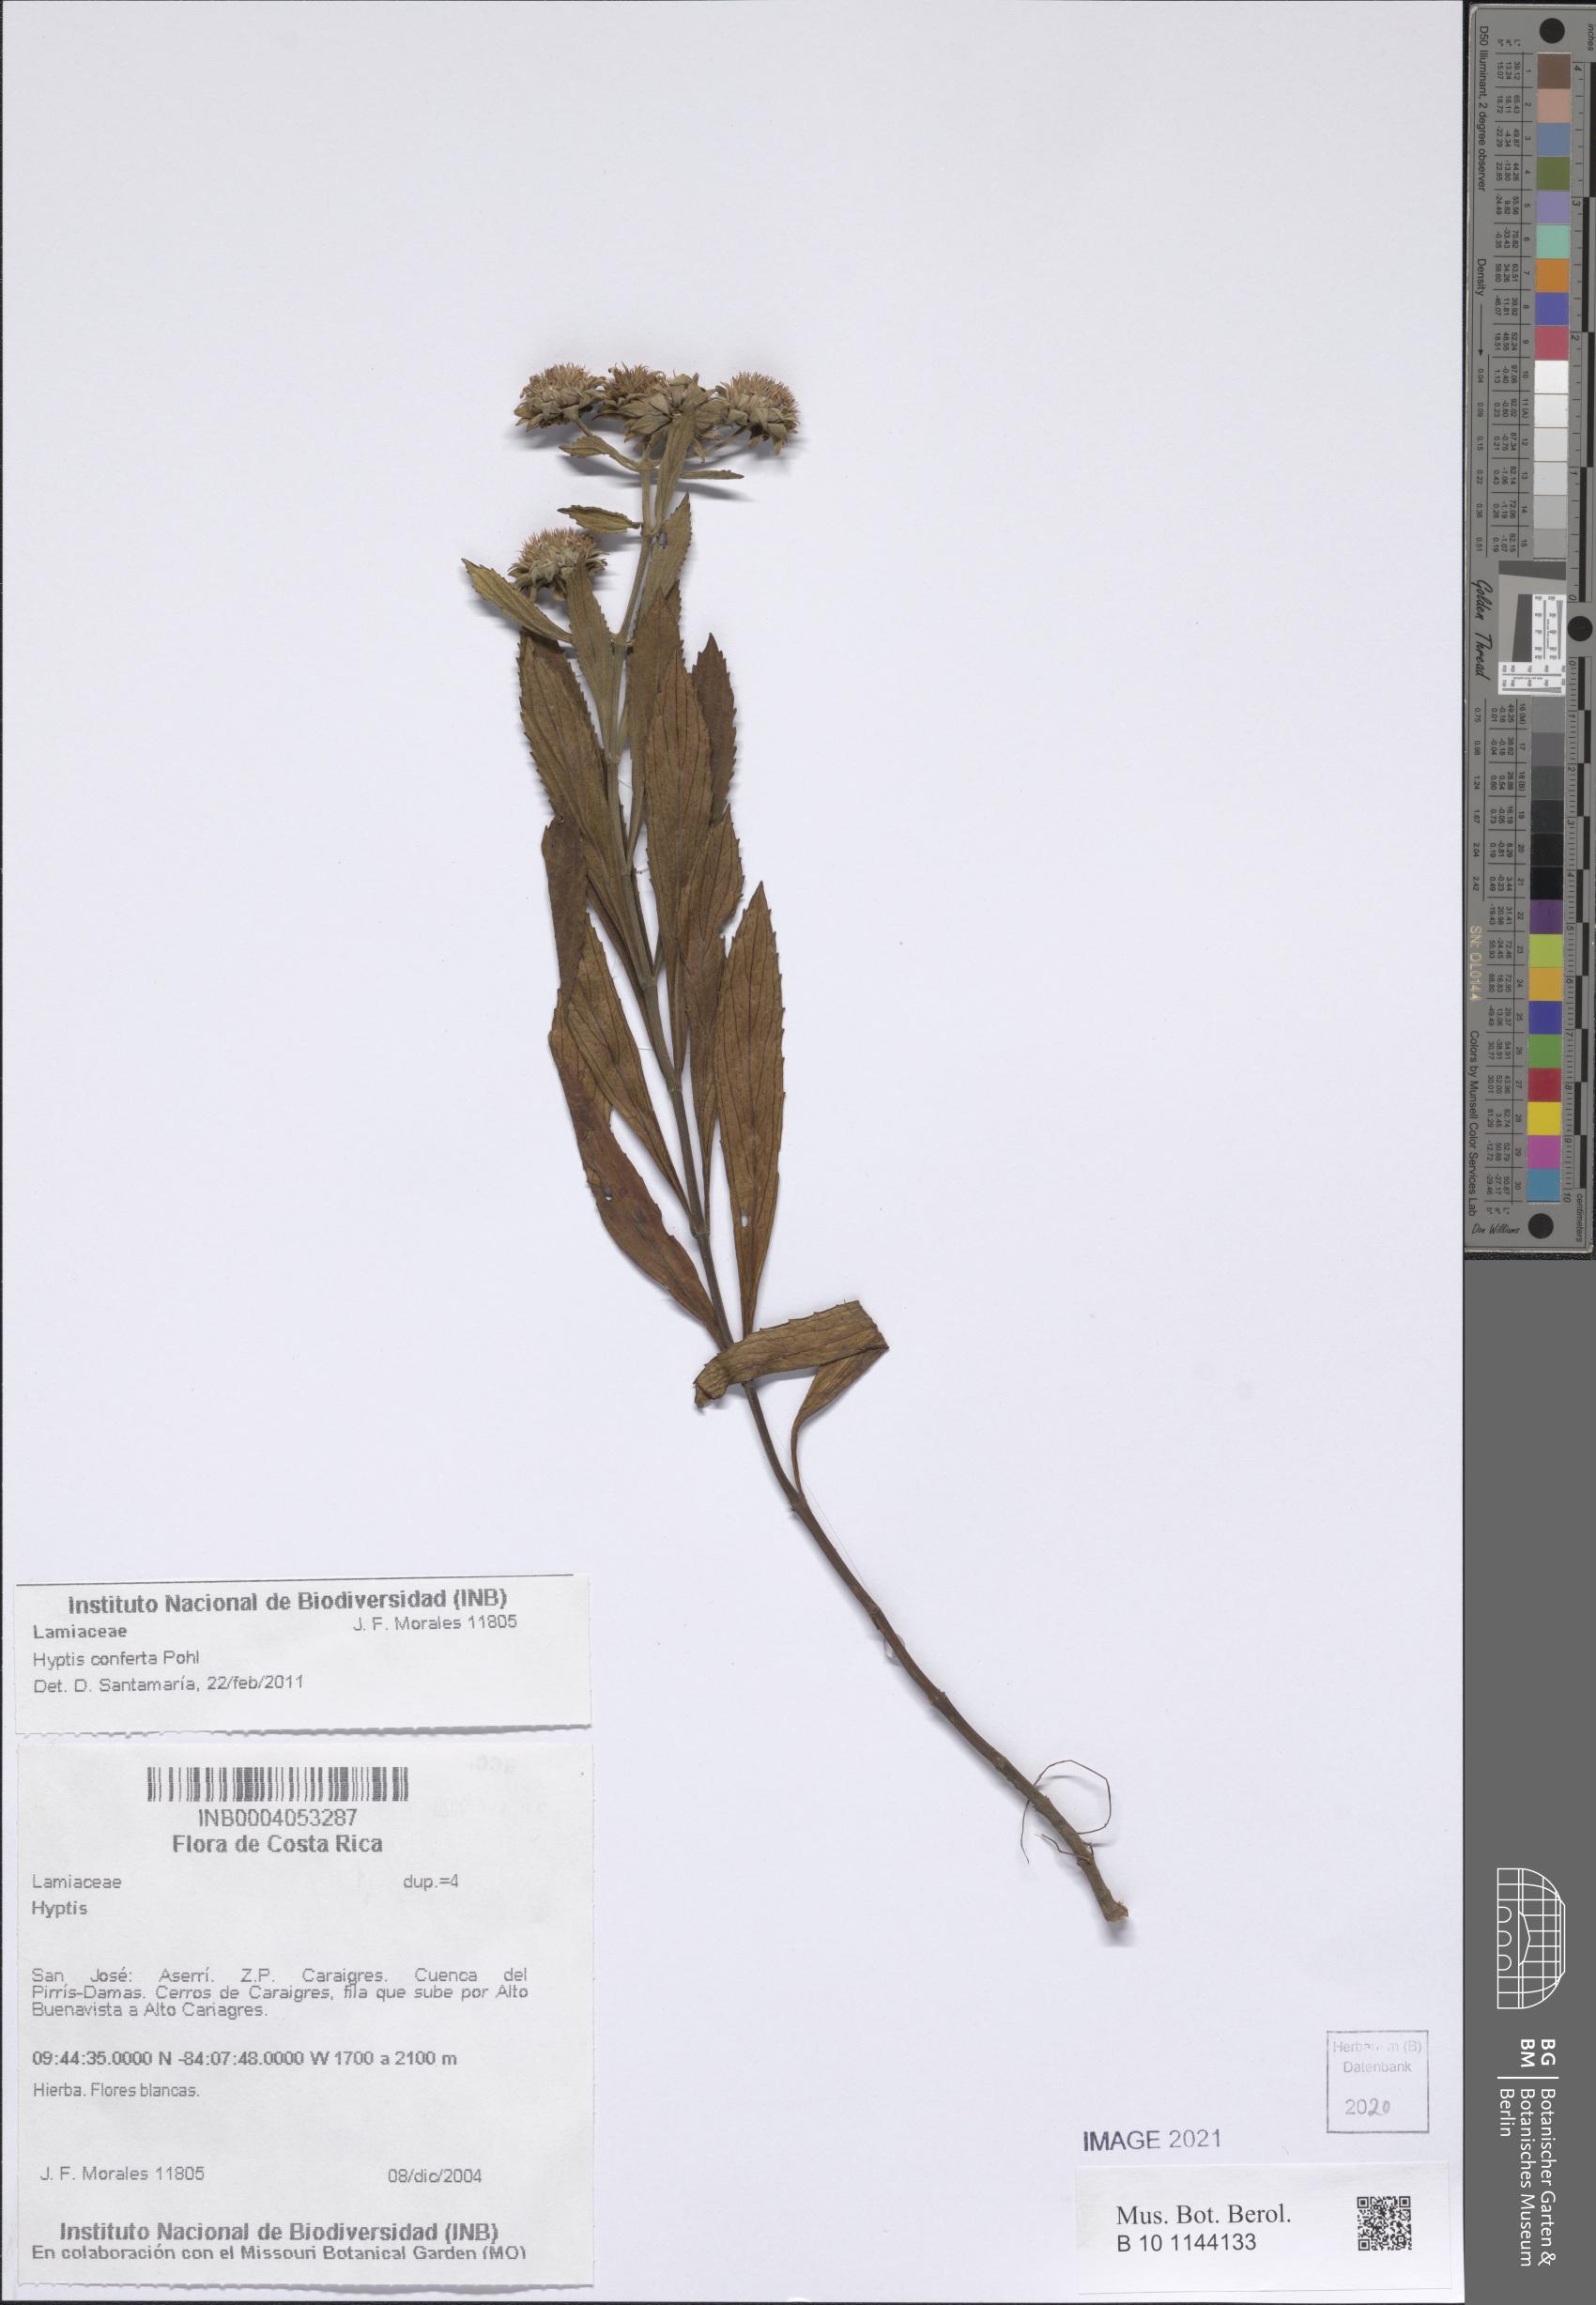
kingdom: Plantae
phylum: Tracheophyta
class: Magnoliopsida
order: Lamiales
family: Lamiaceae
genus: Hyptis
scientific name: Hyptis conferta
